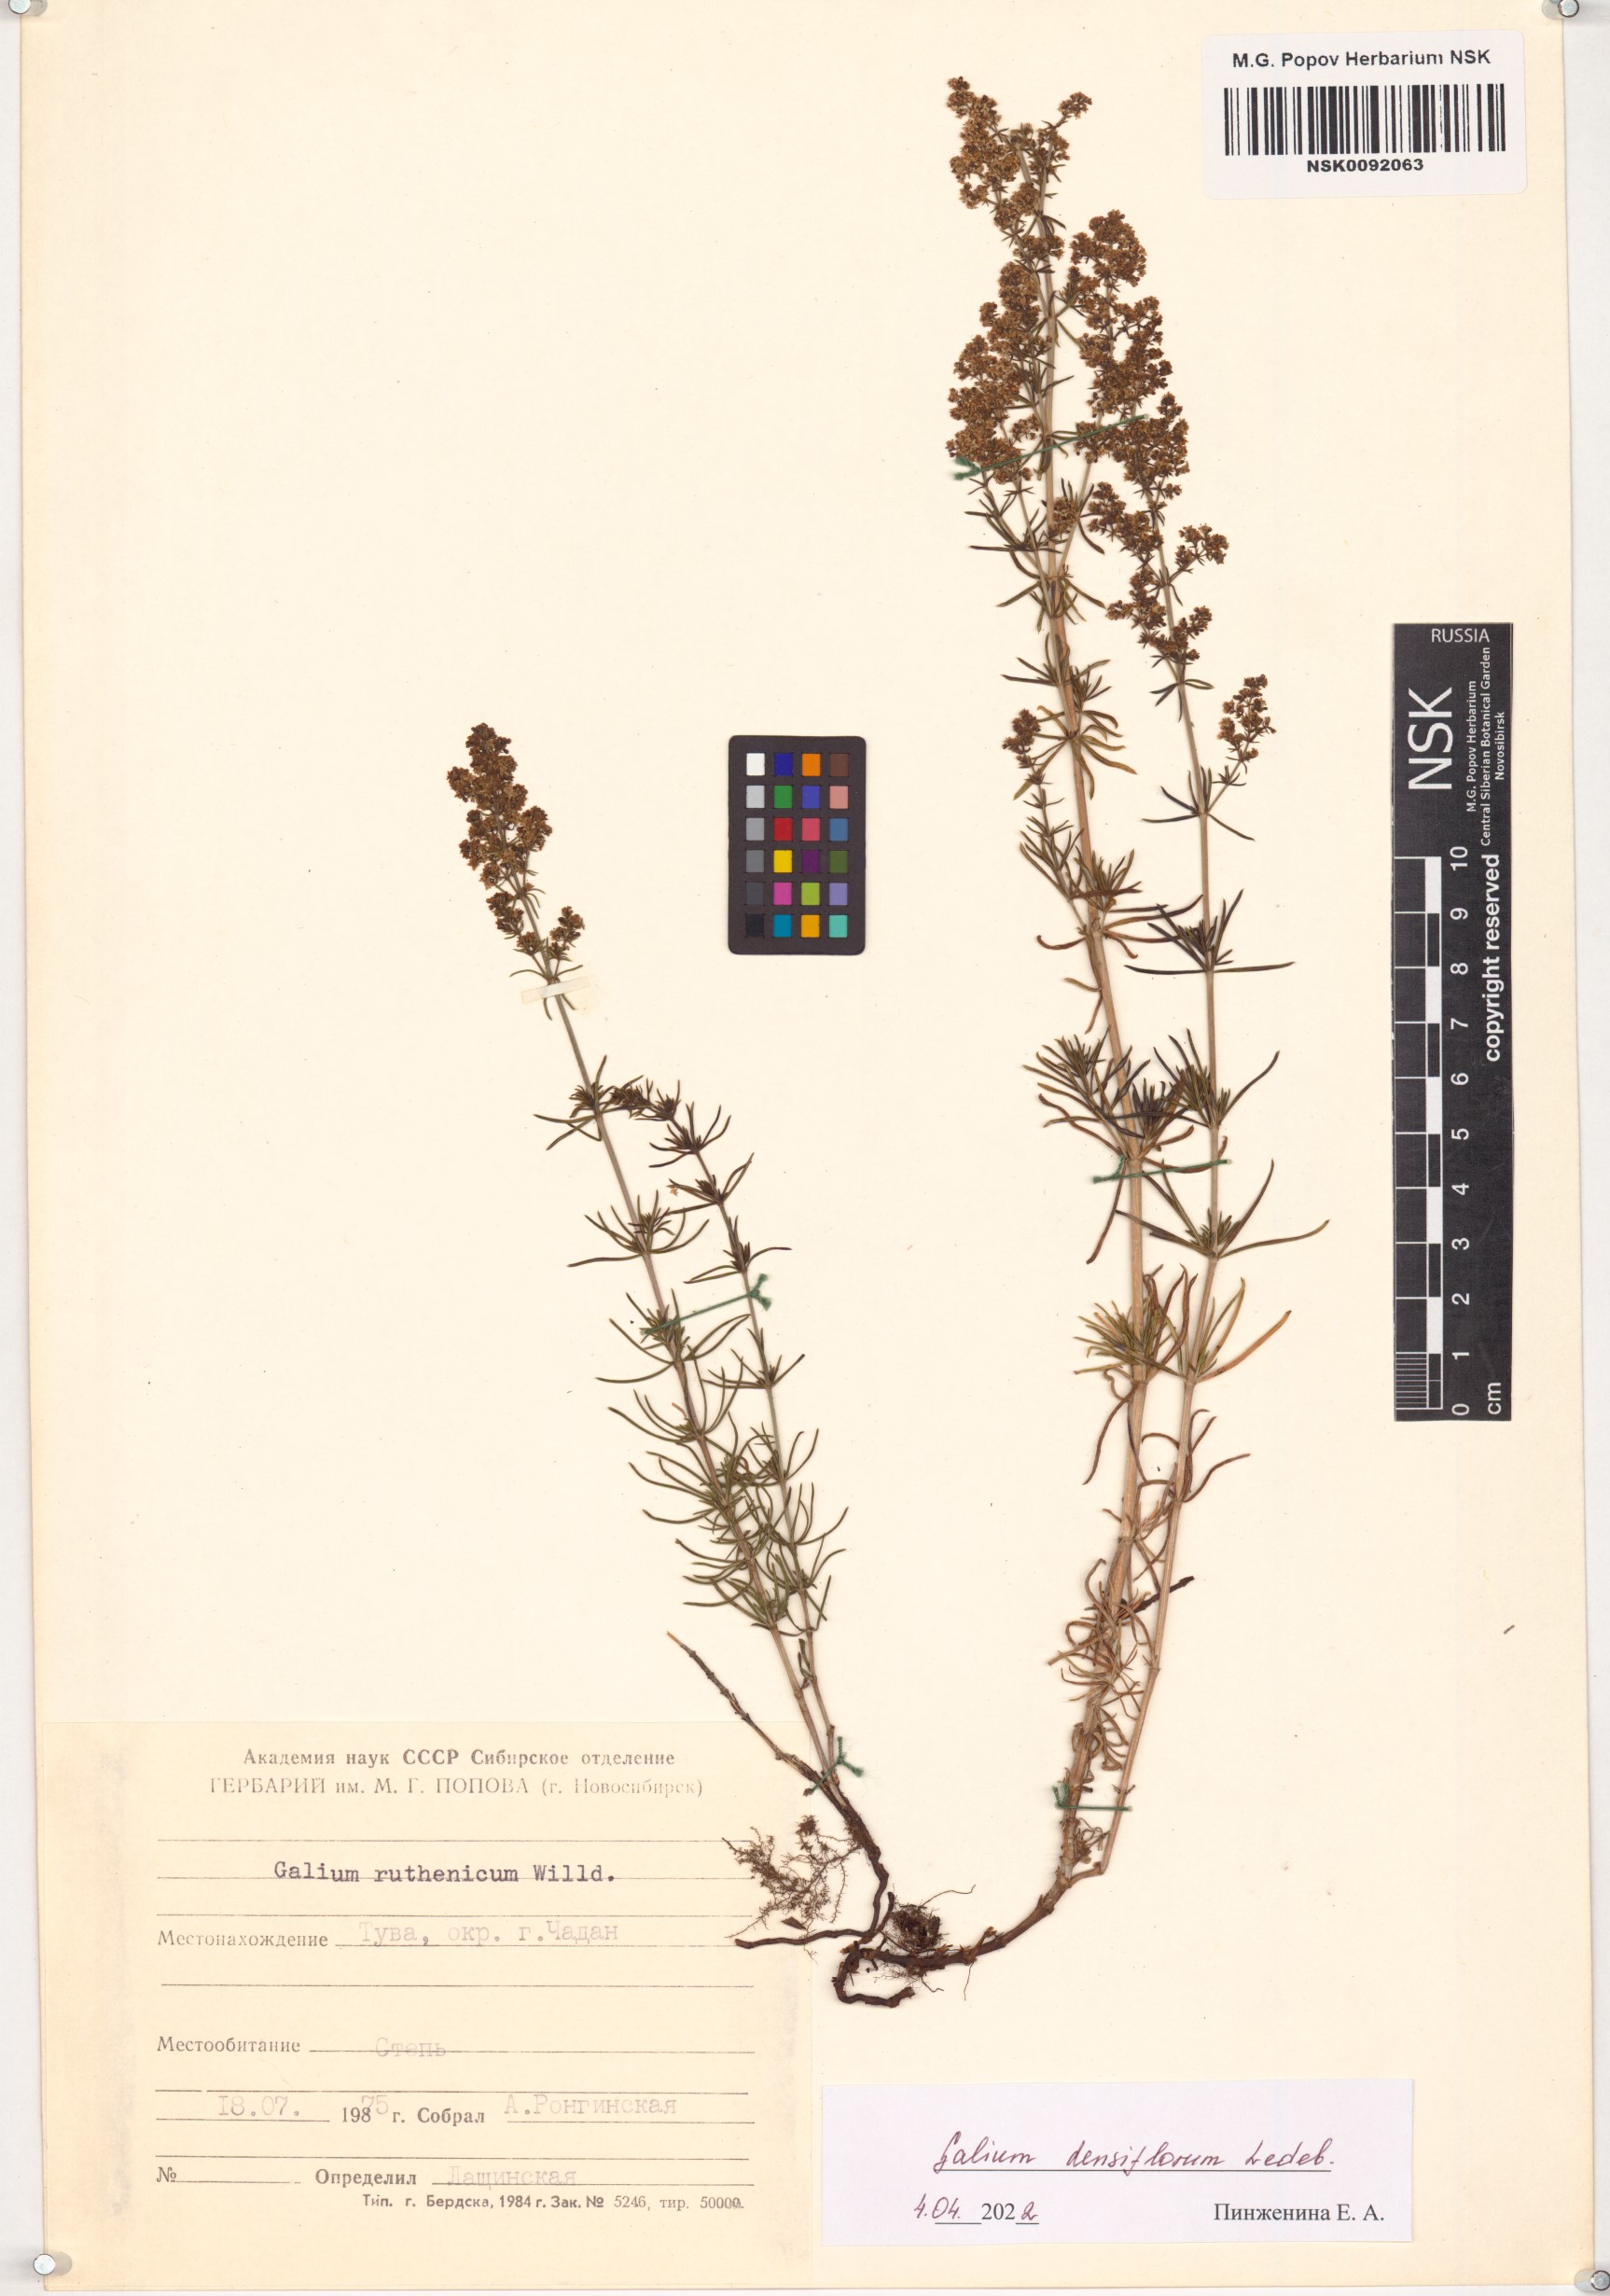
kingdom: Plantae
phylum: Tracheophyta
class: Magnoliopsida
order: Gentianales
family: Rubiaceae
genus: Galium
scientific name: Galium densiflorum
